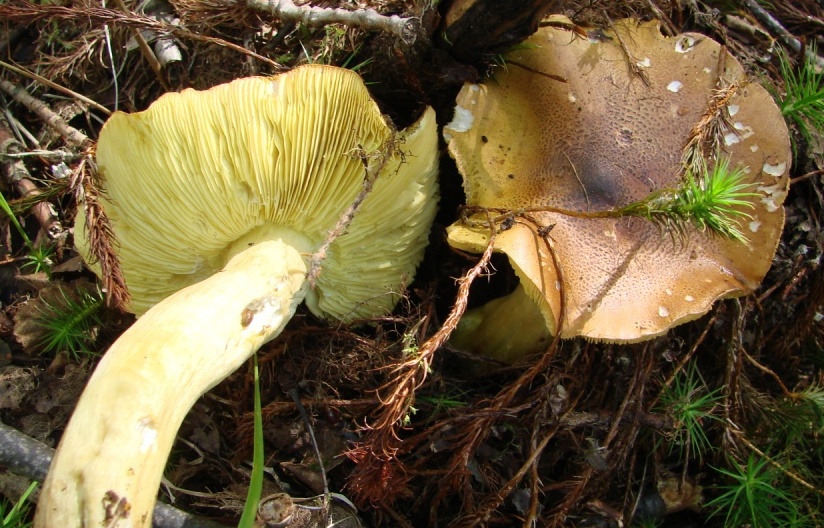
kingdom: Fungi
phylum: Basidiomycota
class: Agaricomycetes
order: Agaricales
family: Tricholomataceae
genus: Tricholoma
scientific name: Tricholoma equestre
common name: ægte ridderhat
